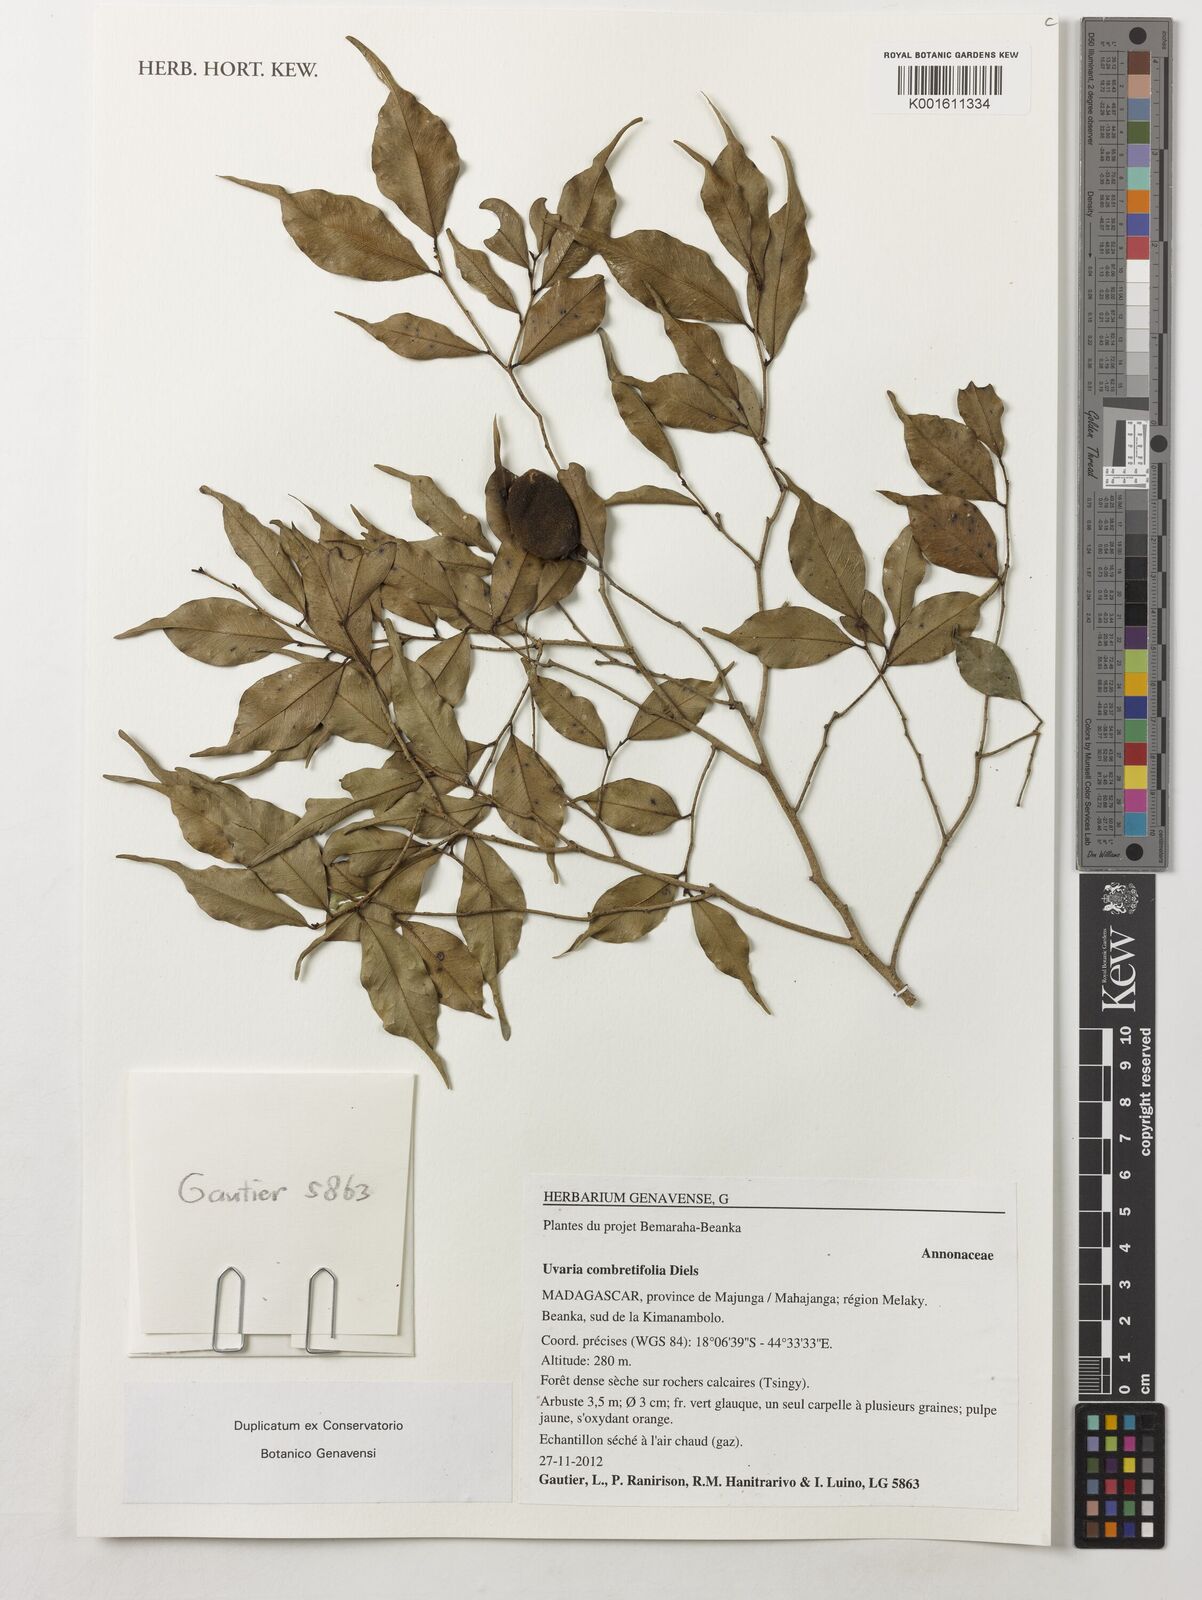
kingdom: Plantae
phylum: Tracheophyta
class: Magnoliopsida
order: Magnoliales
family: Annonaceae
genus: Uvaria
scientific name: Uvaria combretifolia
